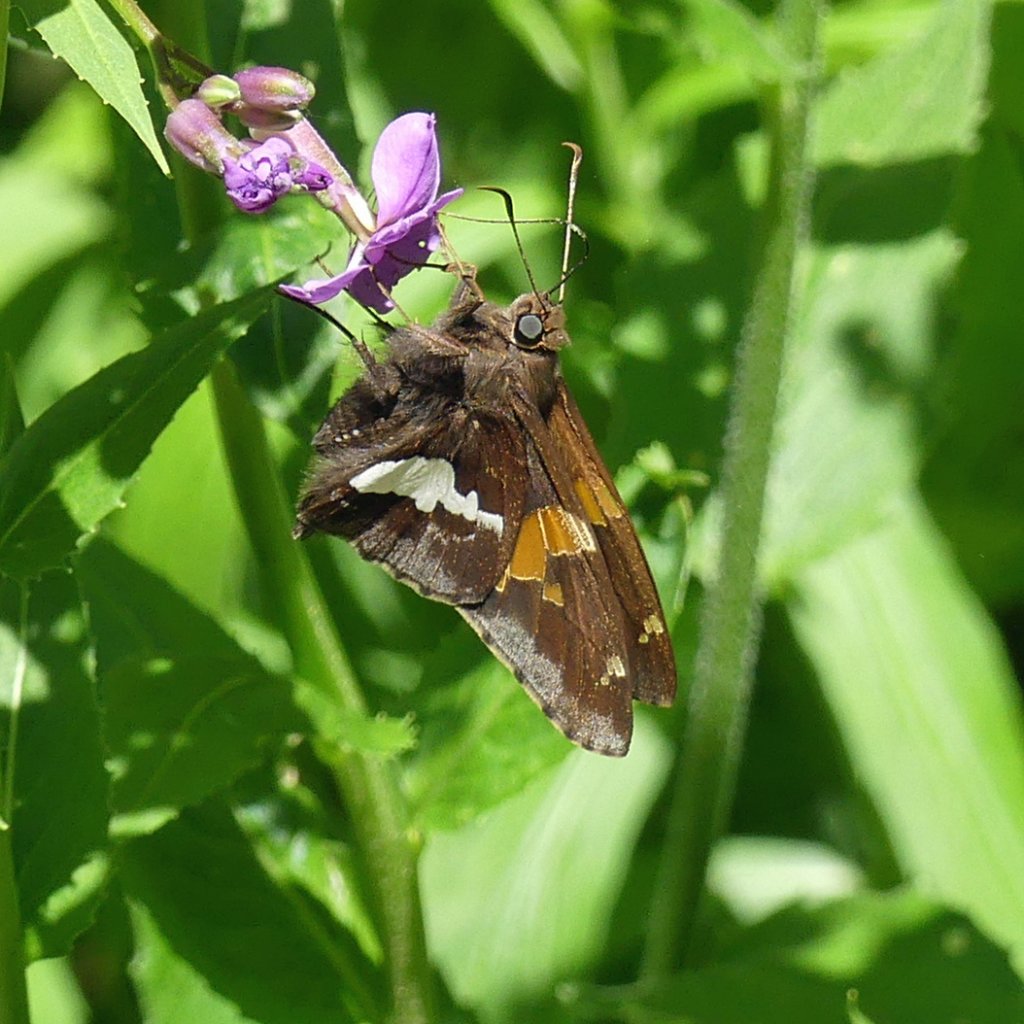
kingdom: Animalia
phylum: Arthropoda
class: Insecta
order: Lepidoptera
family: Hesperiidae
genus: Epargyreus
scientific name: Epargyreus clarus
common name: Silver-spotted Skipper
